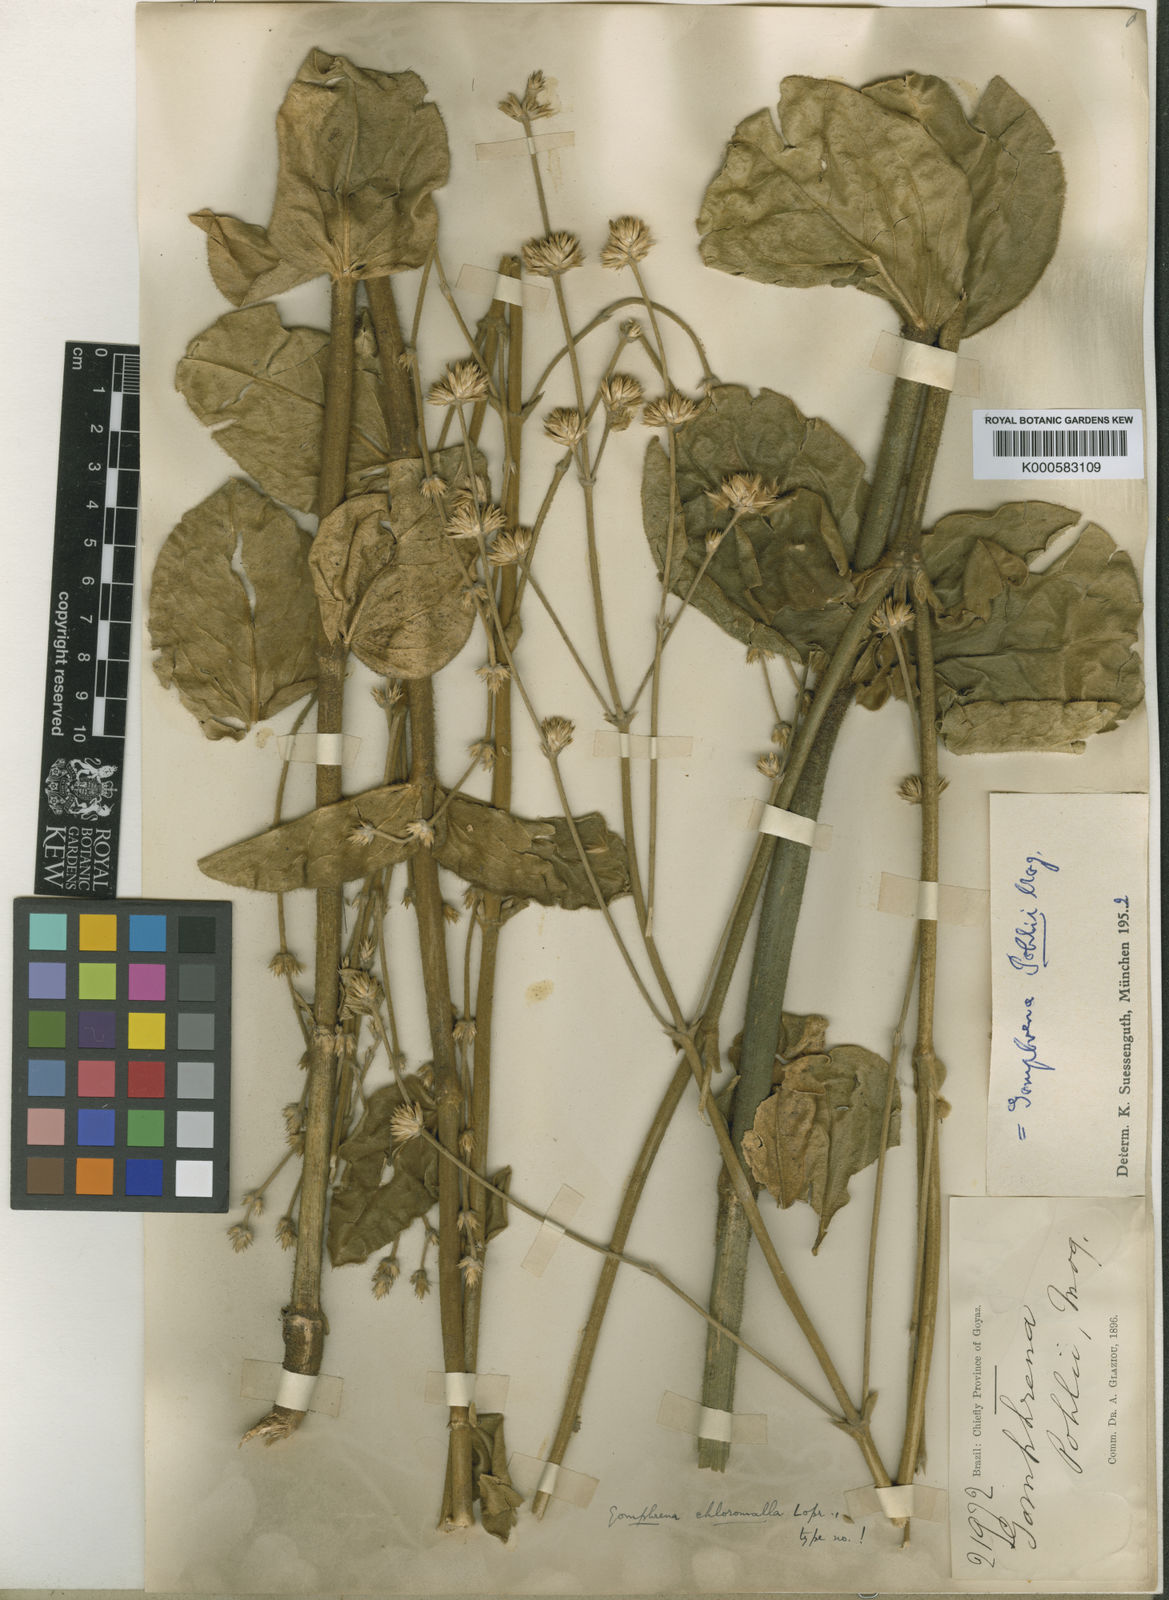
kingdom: Plantae
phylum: Tracheophyta
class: Magnoliopsida
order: Caryophyllales
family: Amaranthaceae
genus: Gomphrena
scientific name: Gomphrena pohlii
